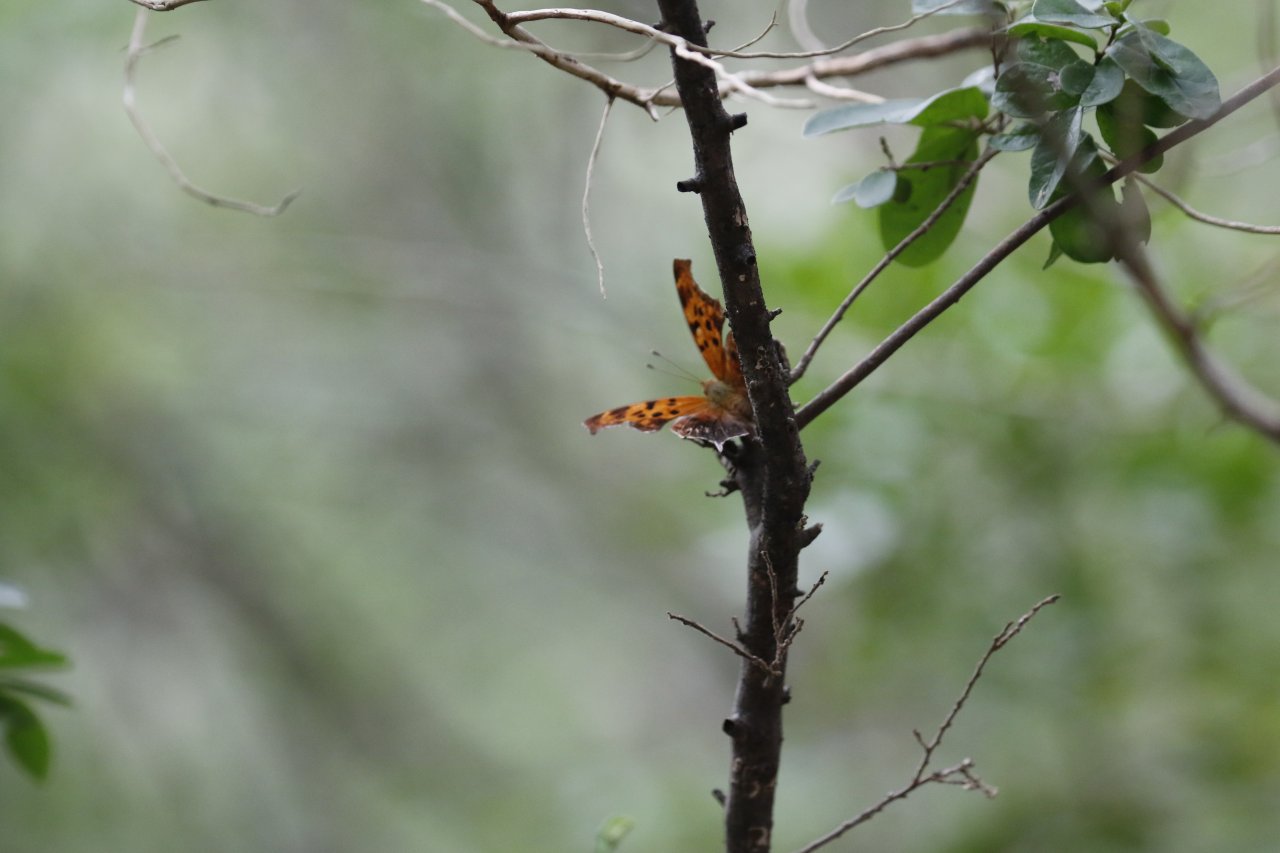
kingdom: Animalia
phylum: Arthropoda
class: Insecta
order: Lepidoptera
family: Nymphalidae
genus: Polygonia
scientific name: Polygonia interrogationis
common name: Question Mark
